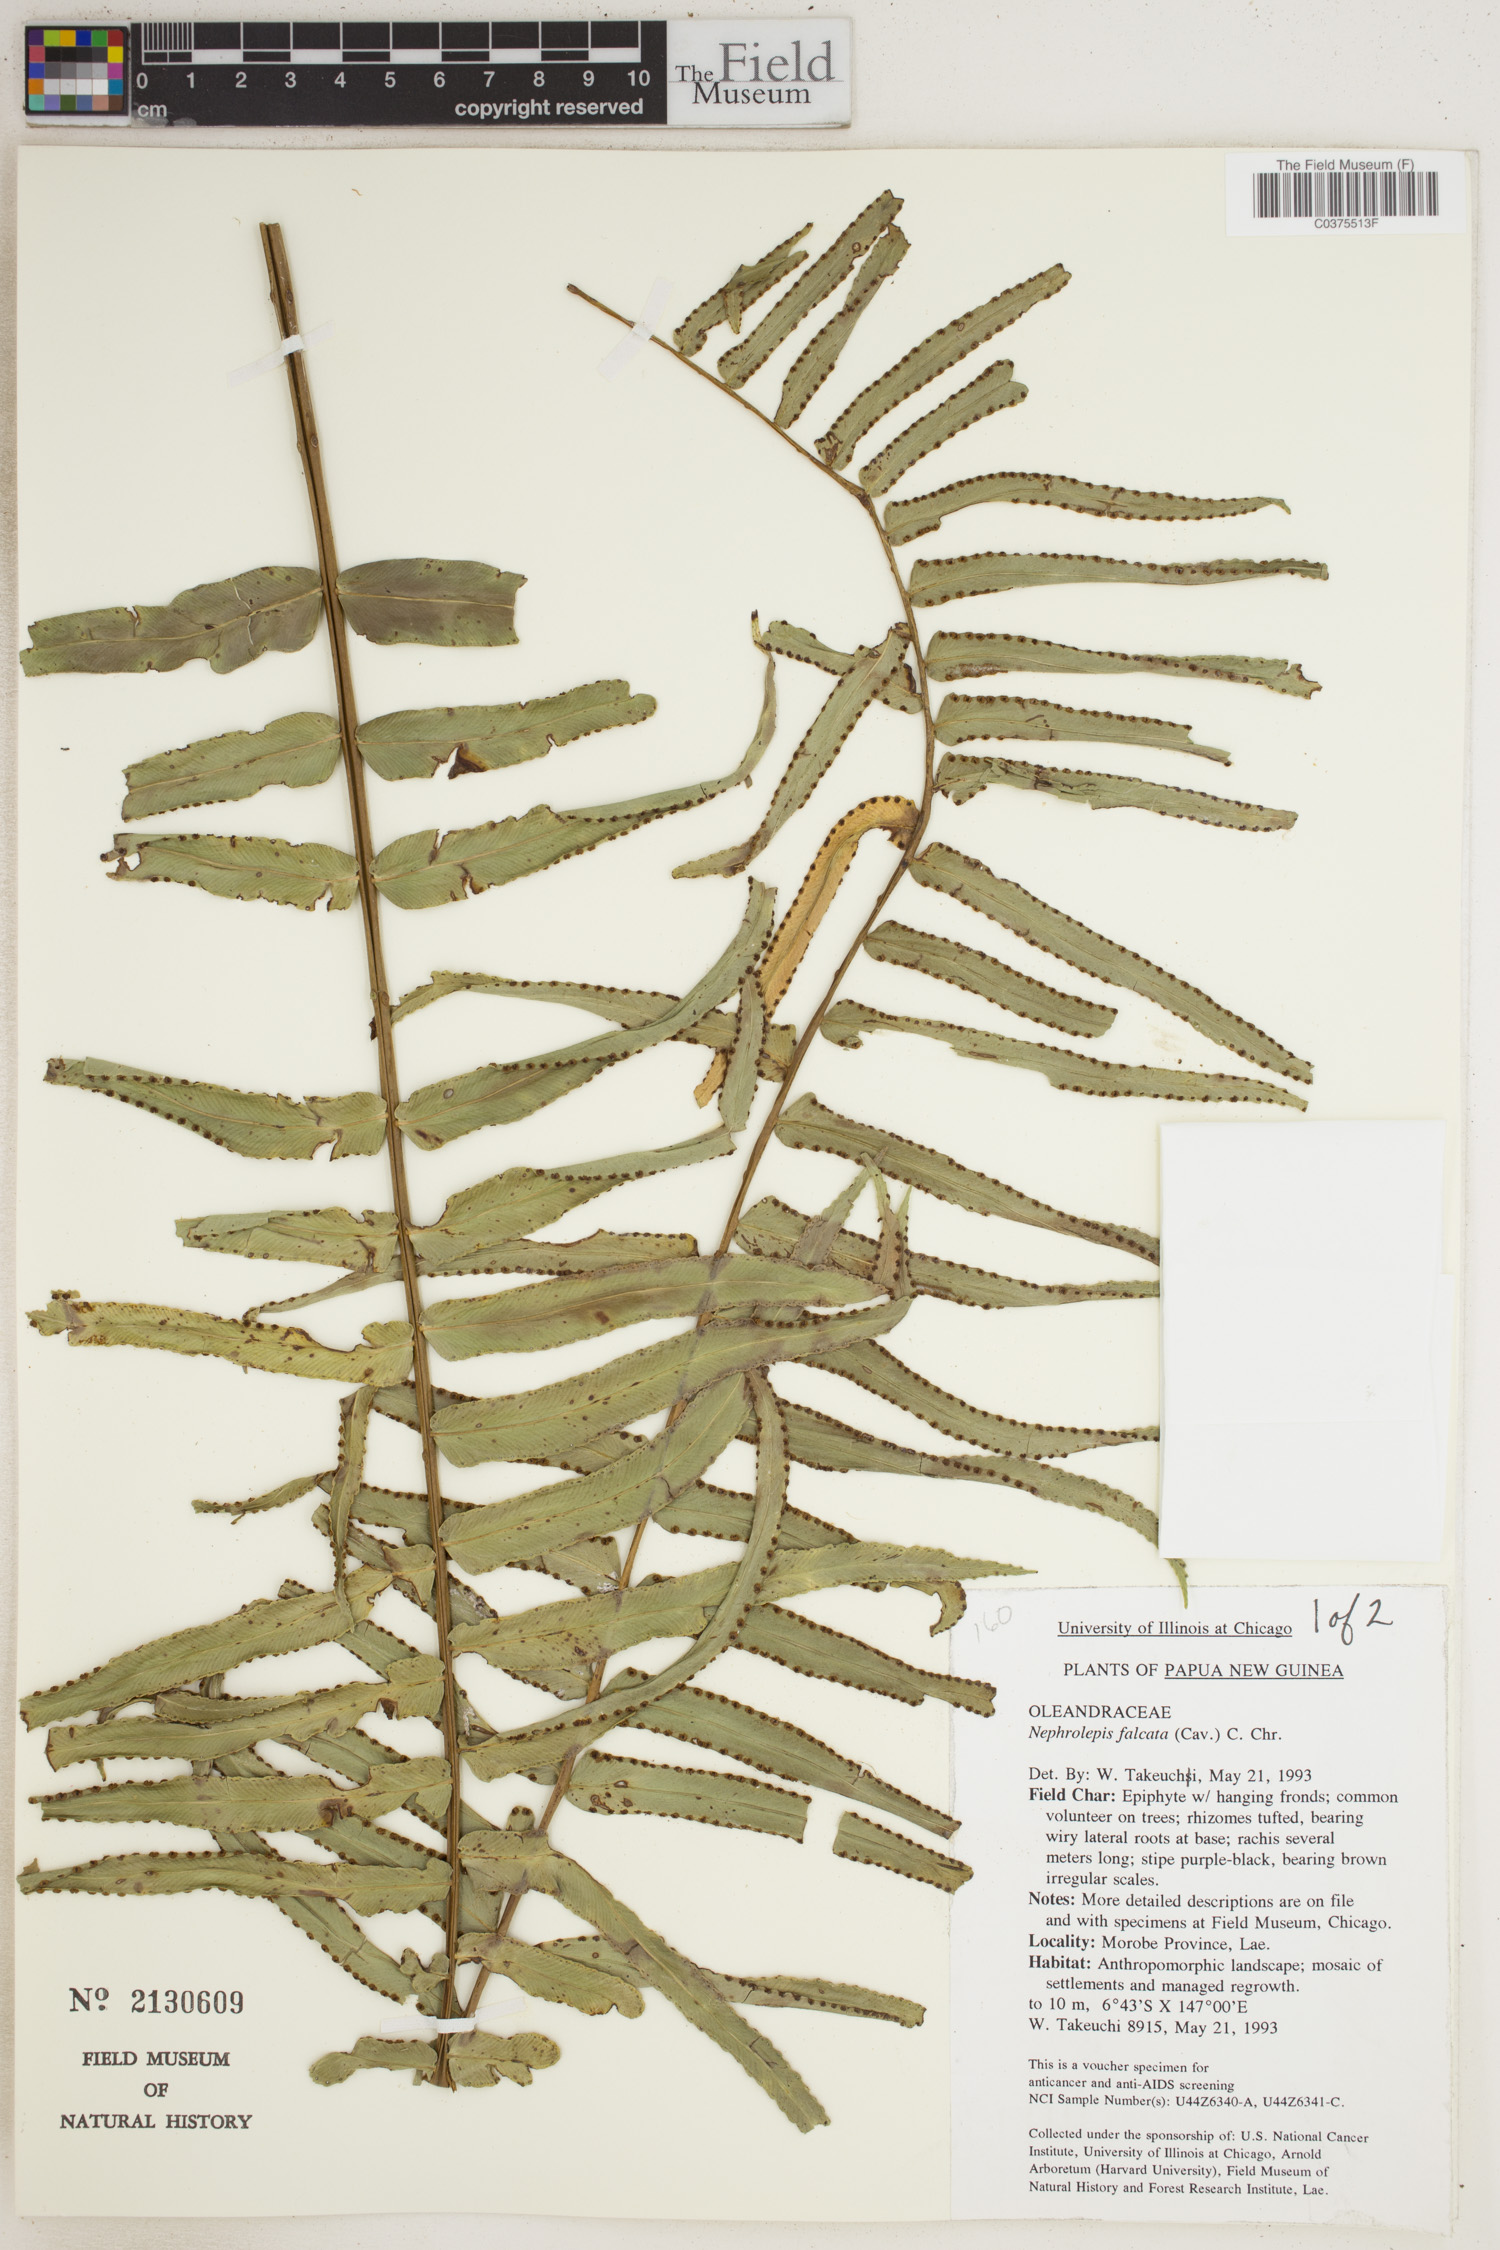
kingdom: Plantae
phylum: Tracheophyta
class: Polypodiopsida
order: Polypodiales
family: Nephrolepidaceae
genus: Nephrolepis
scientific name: Nephrolepis falcata
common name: Fishtail swordfern
